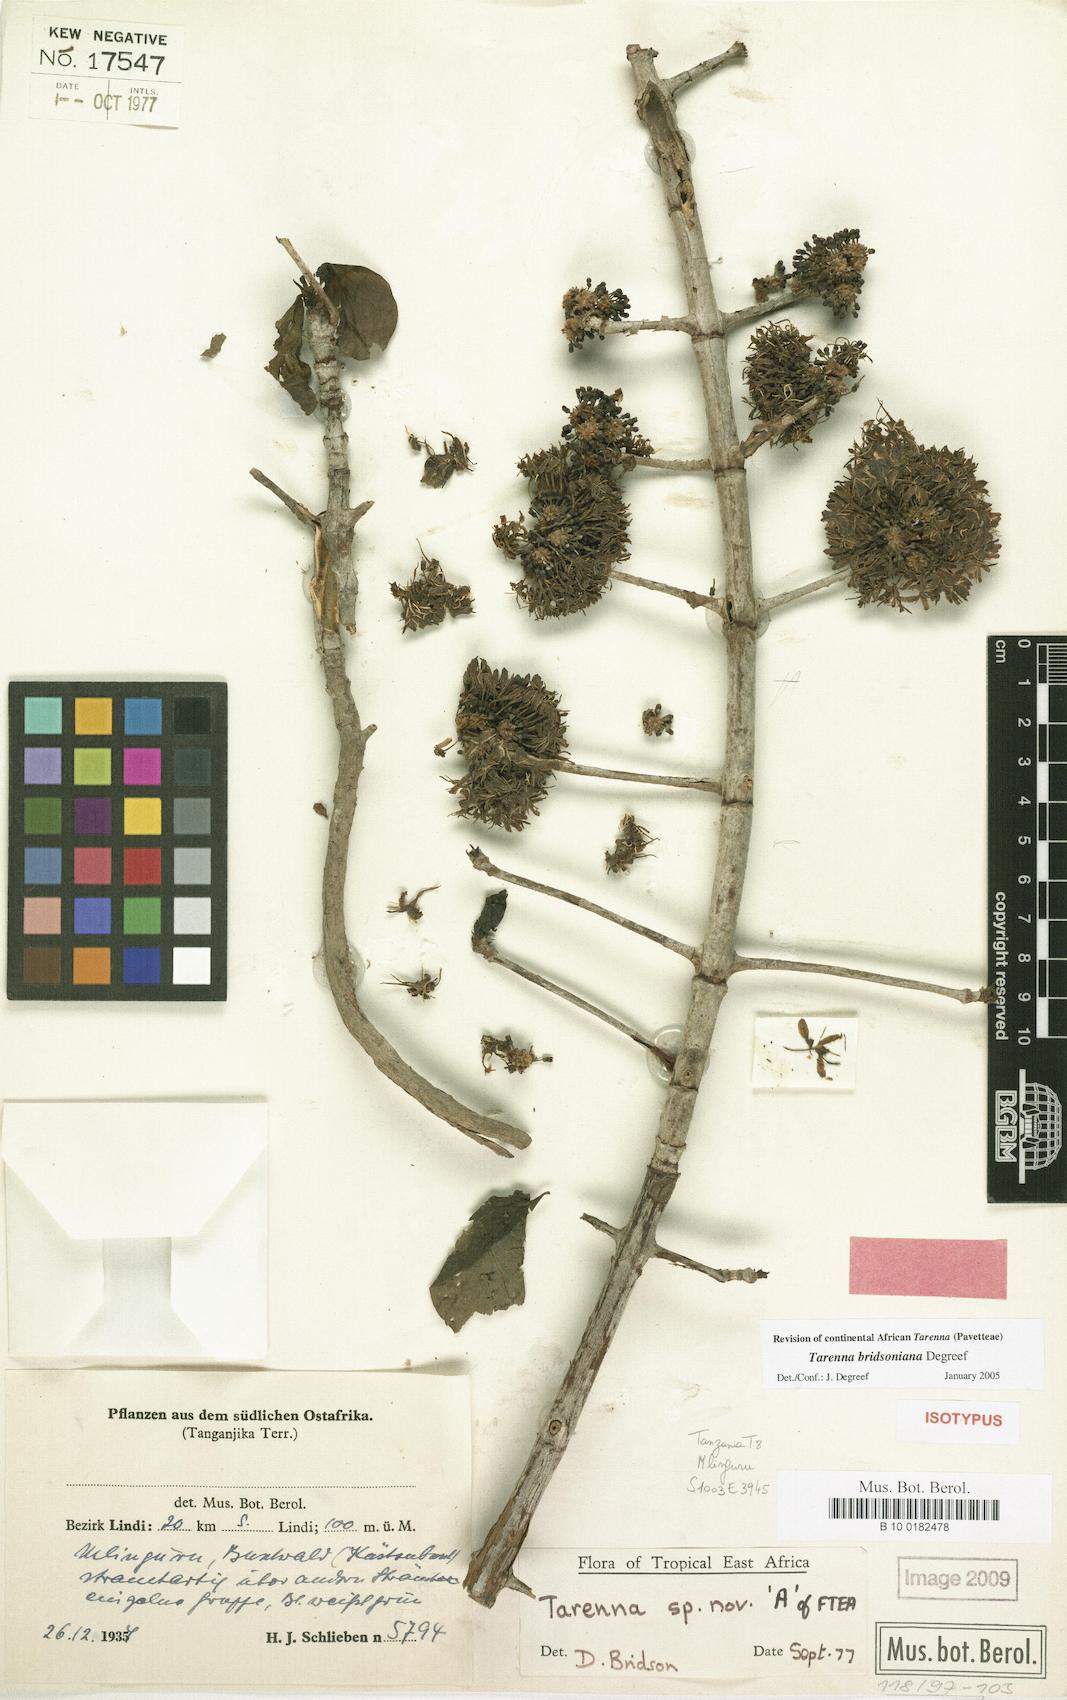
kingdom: Plantae
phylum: Tracheophyta
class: Magnoliopsida
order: Gentianales
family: Rubiaceae
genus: Tarenna
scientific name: Tarenna bridsoniana
